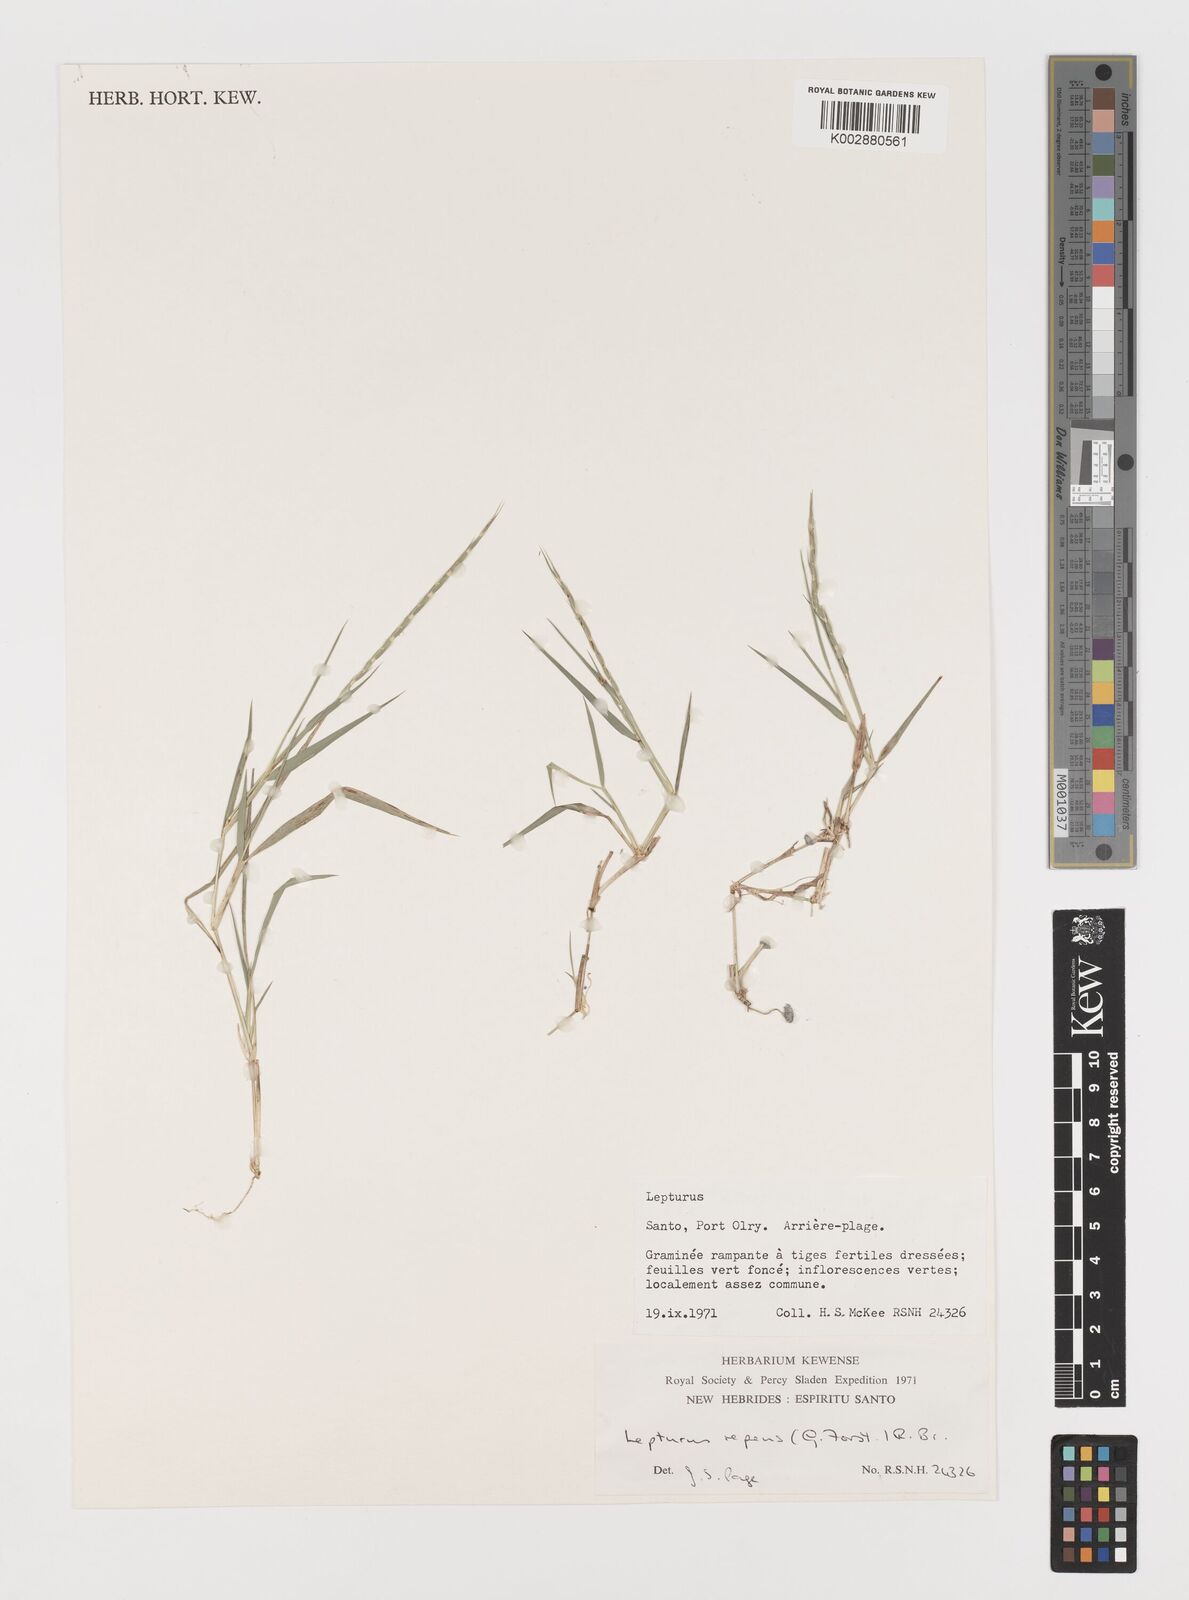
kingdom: Plantae
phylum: Tracheophyta
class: Liliopsida
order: Poales
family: Poaceae
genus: Lepturus
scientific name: Lepturus repens
